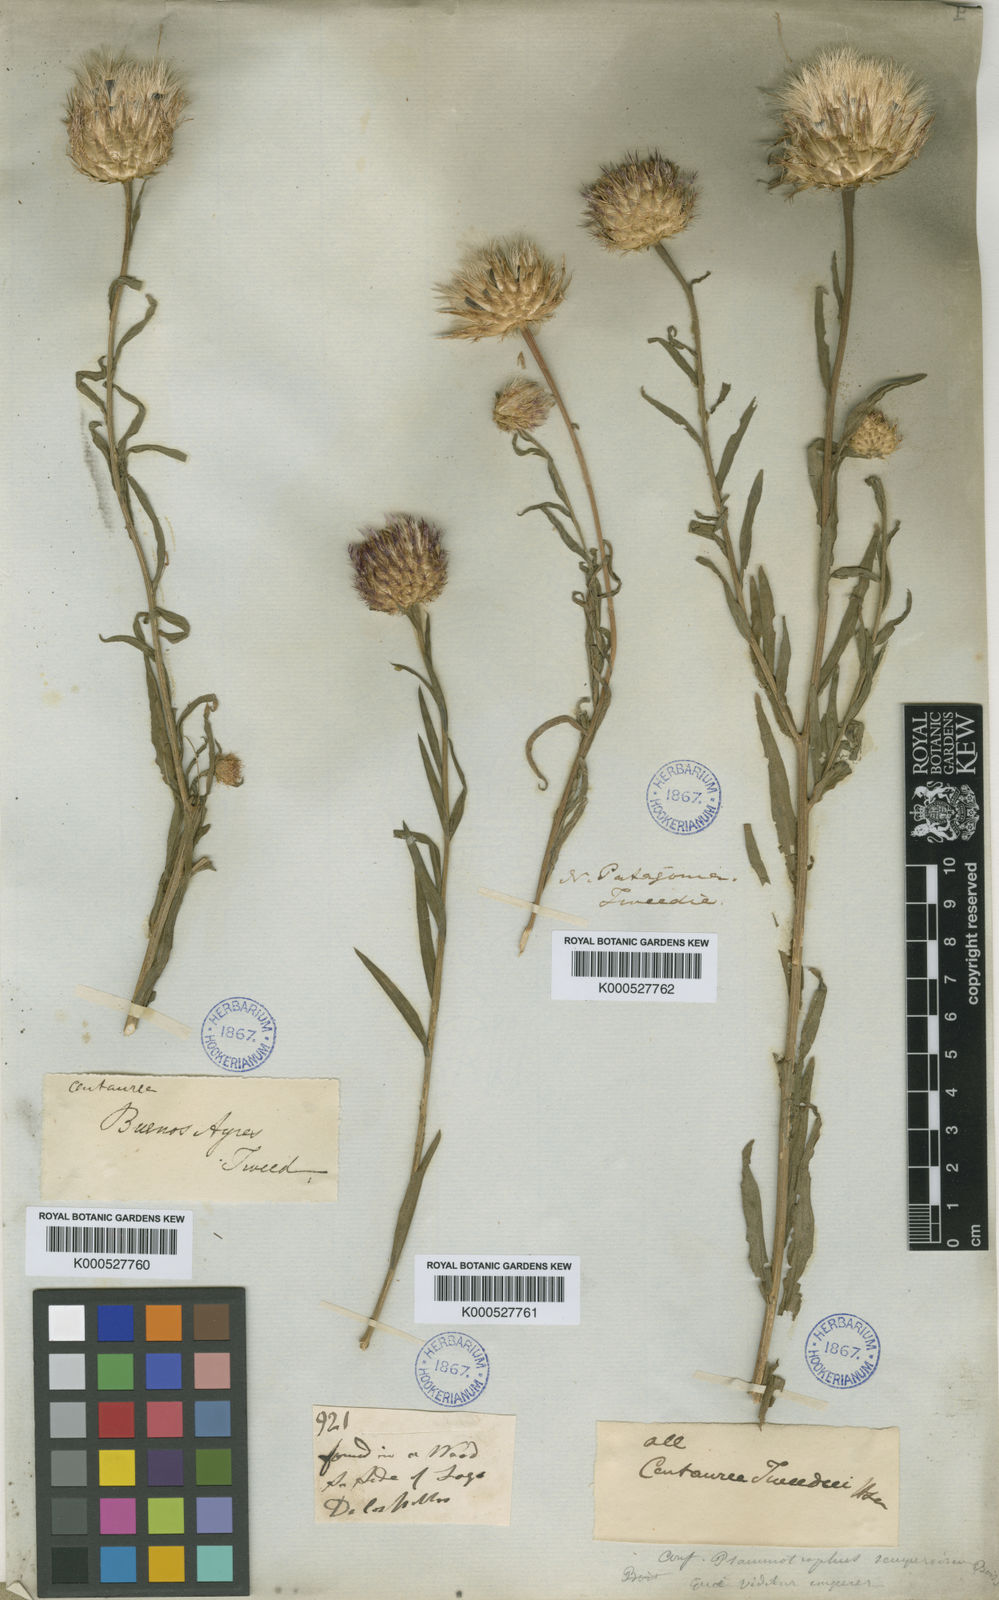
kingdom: Plantae
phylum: Tracheophyta
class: Magnoliopsida
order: Asterales
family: Asteraceae
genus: Plectocephalus
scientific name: Plectocephalus tweediei
